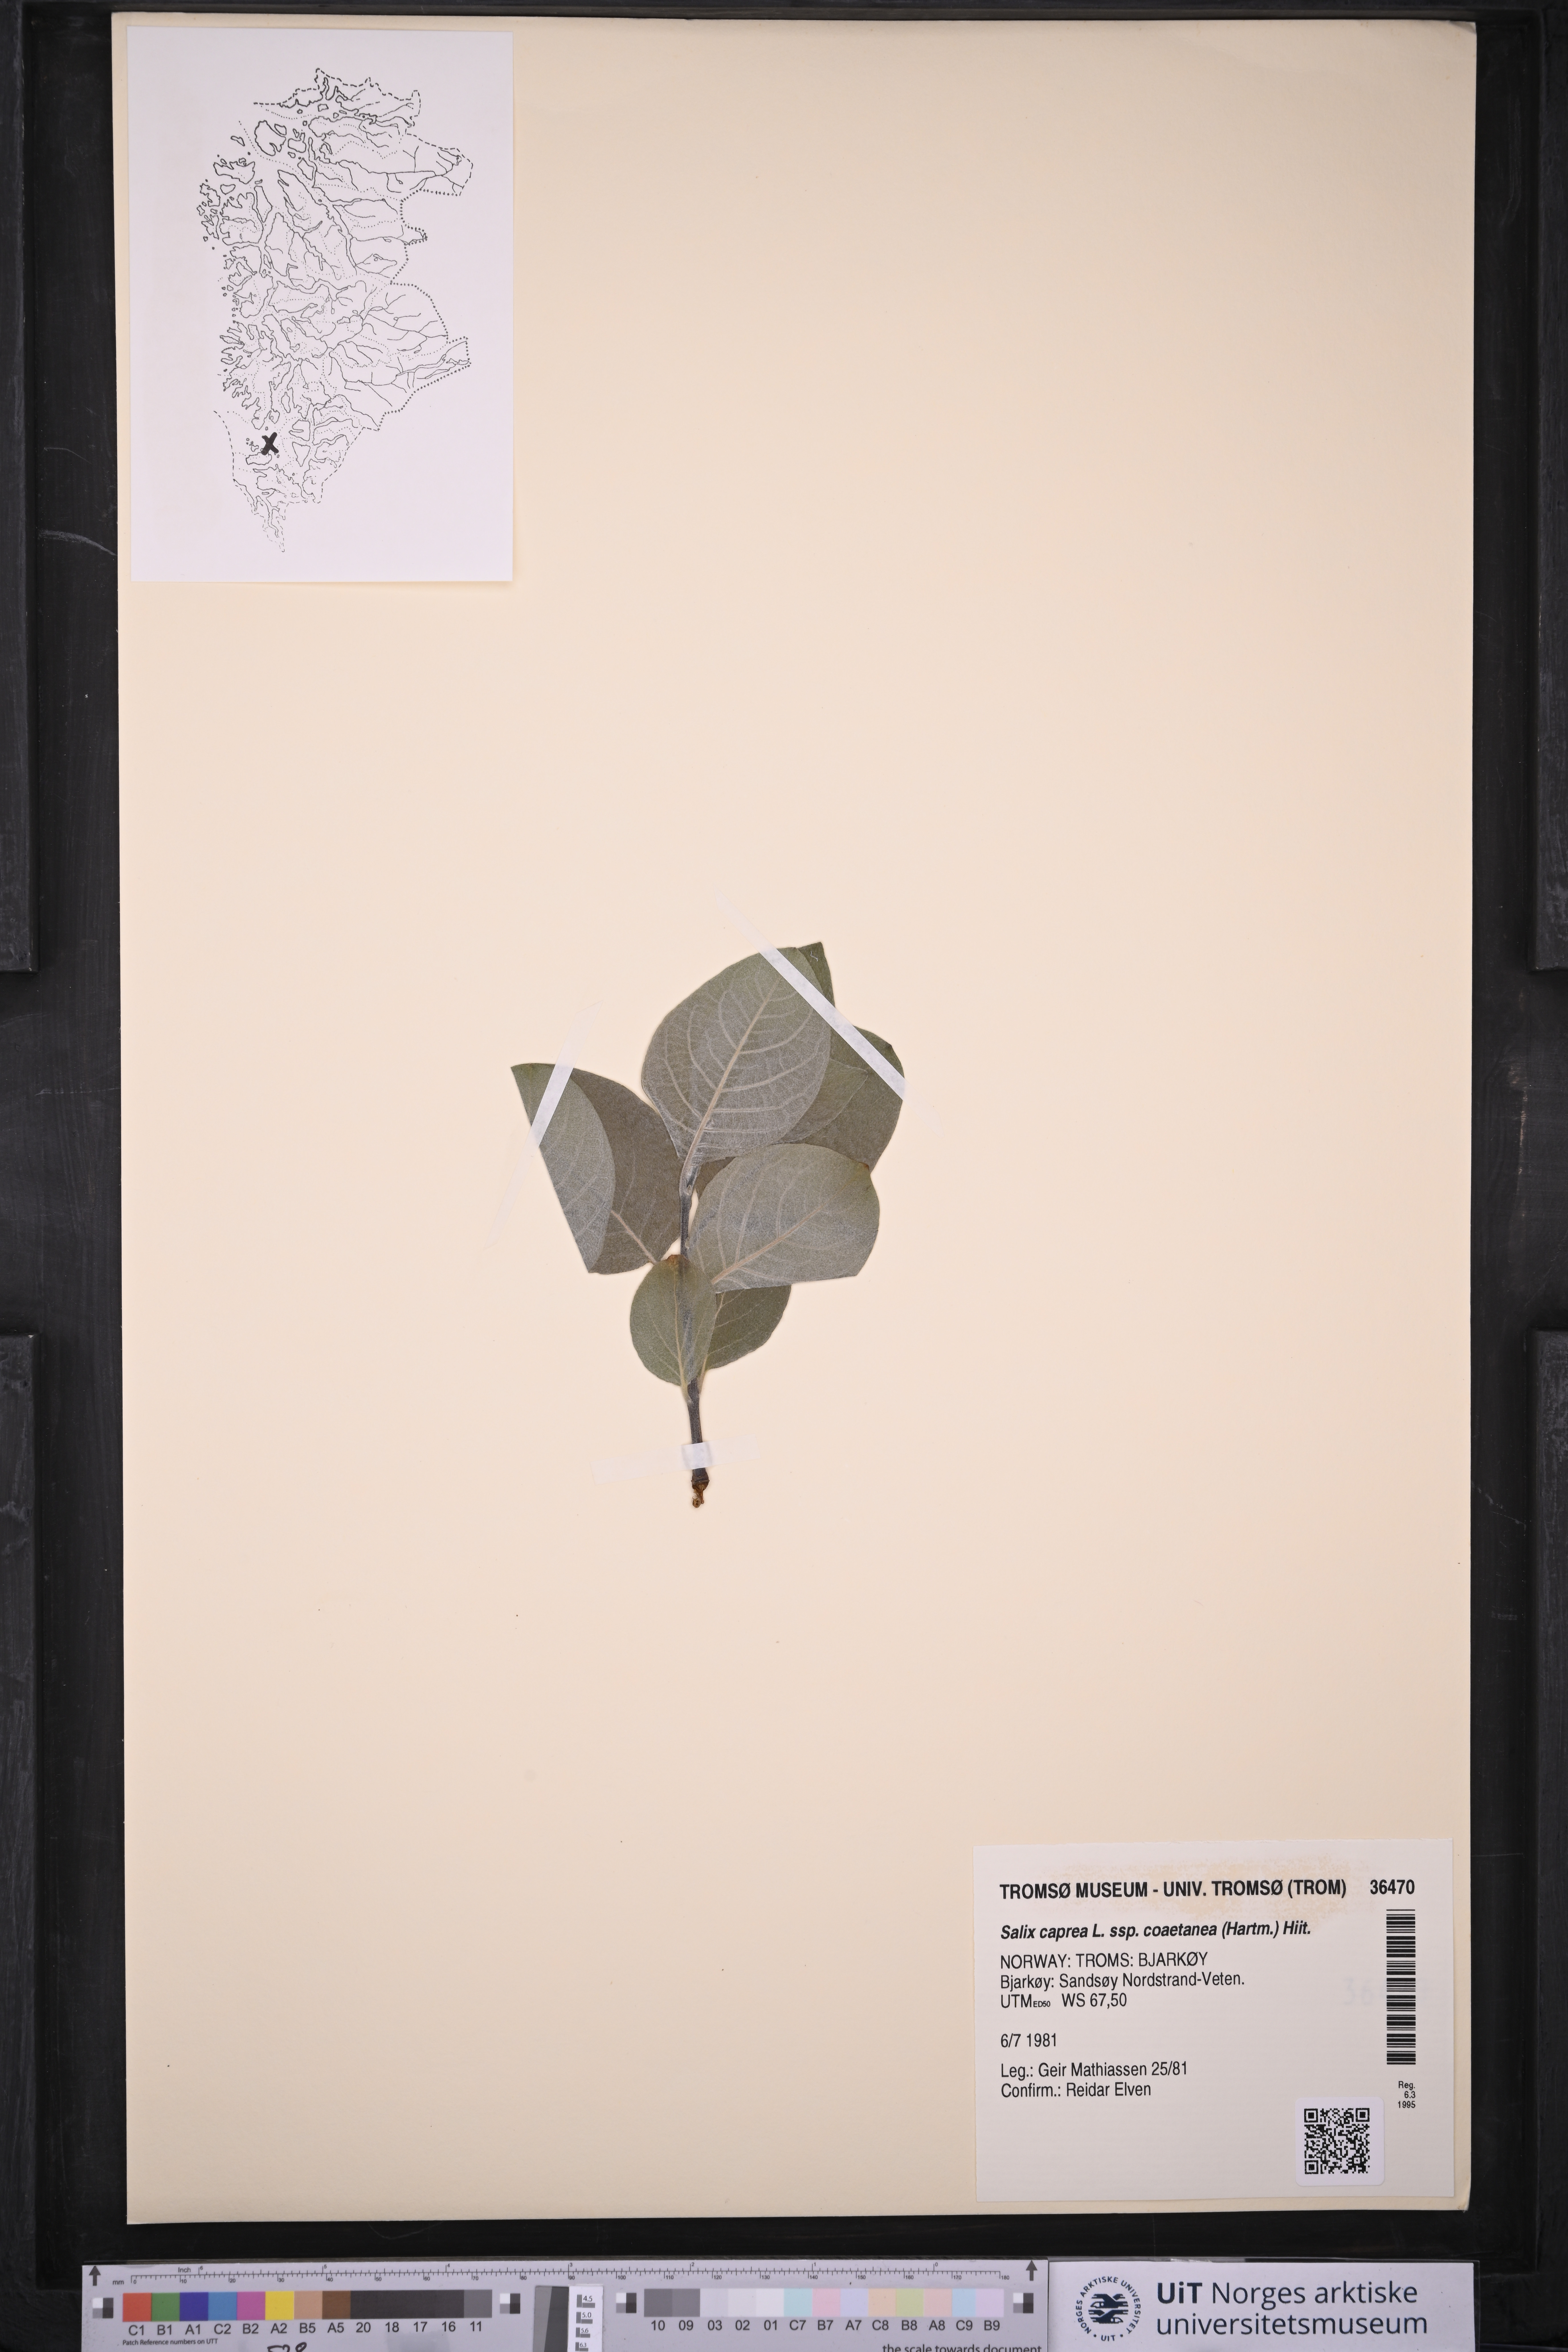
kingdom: Plantae
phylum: Tracheophyta
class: Magnoliopsida
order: Malpighiales
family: Salicaceae
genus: Salix
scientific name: Salix caprea
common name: Goat willow
